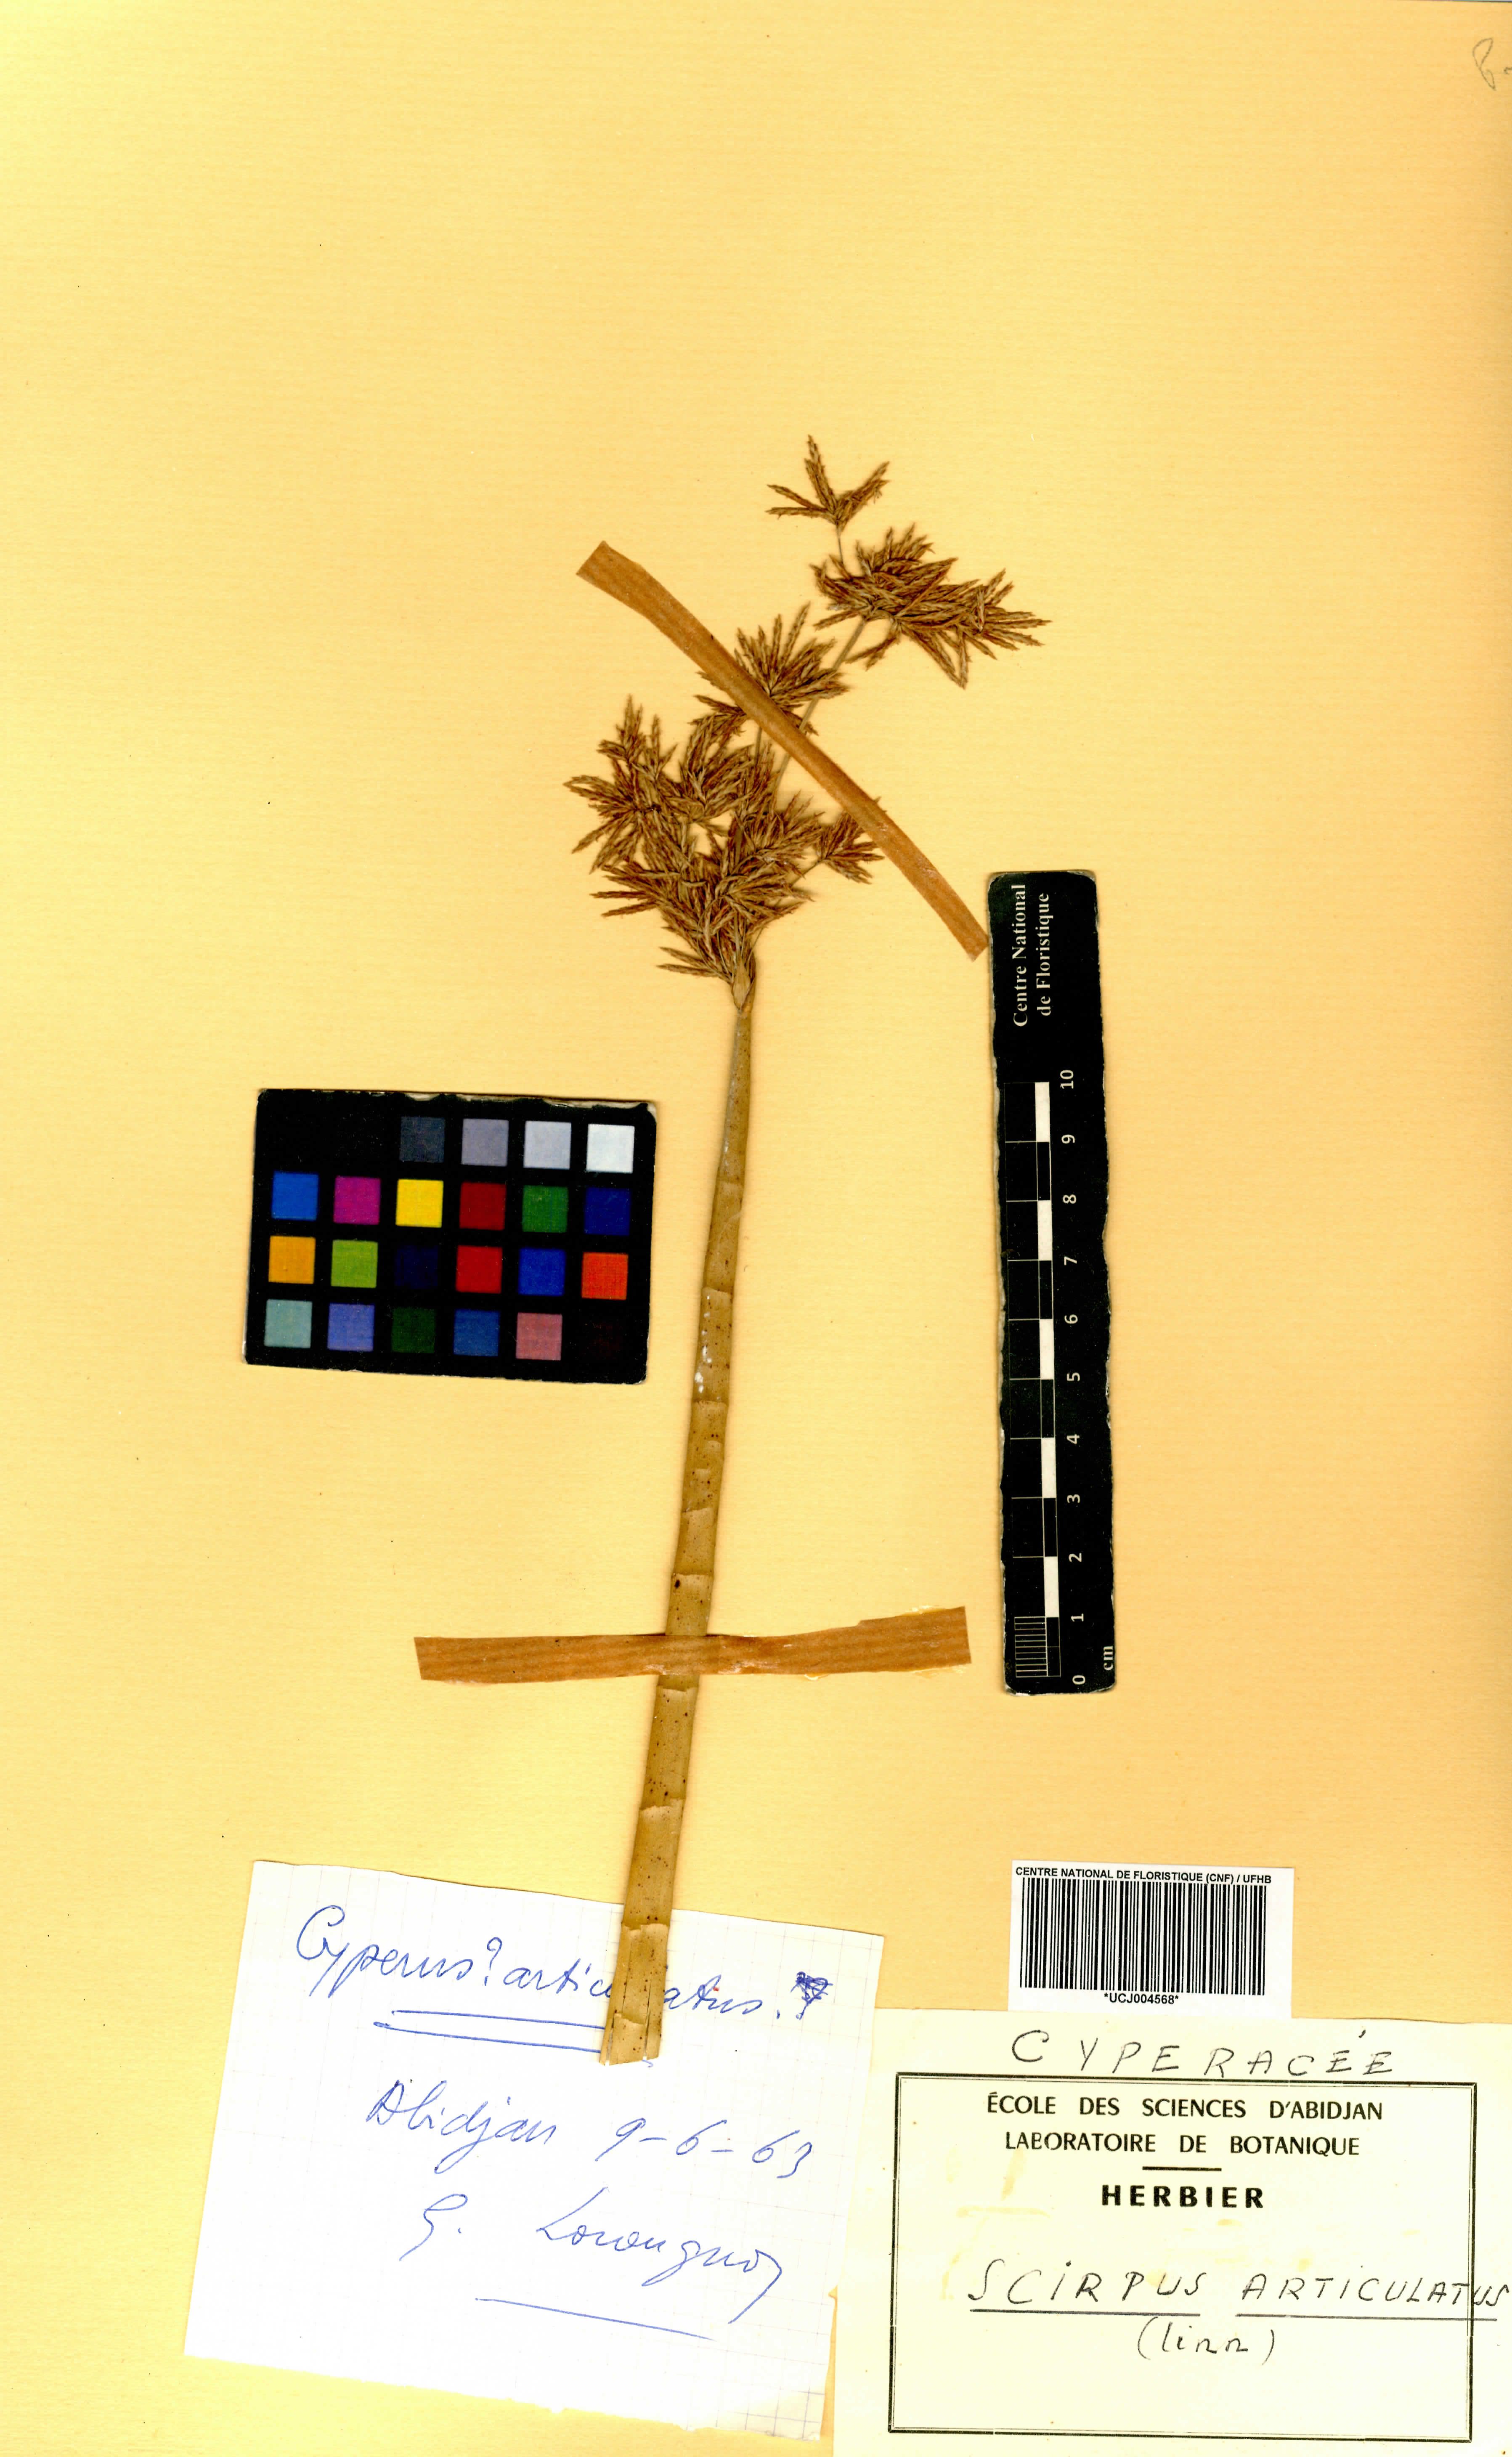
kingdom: Plantae
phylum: Tracheophyta
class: Liliopsida
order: Poales
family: Cyperaceae
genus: Cyperus
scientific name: Cyperus articulatus
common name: Jointed flatsedge
